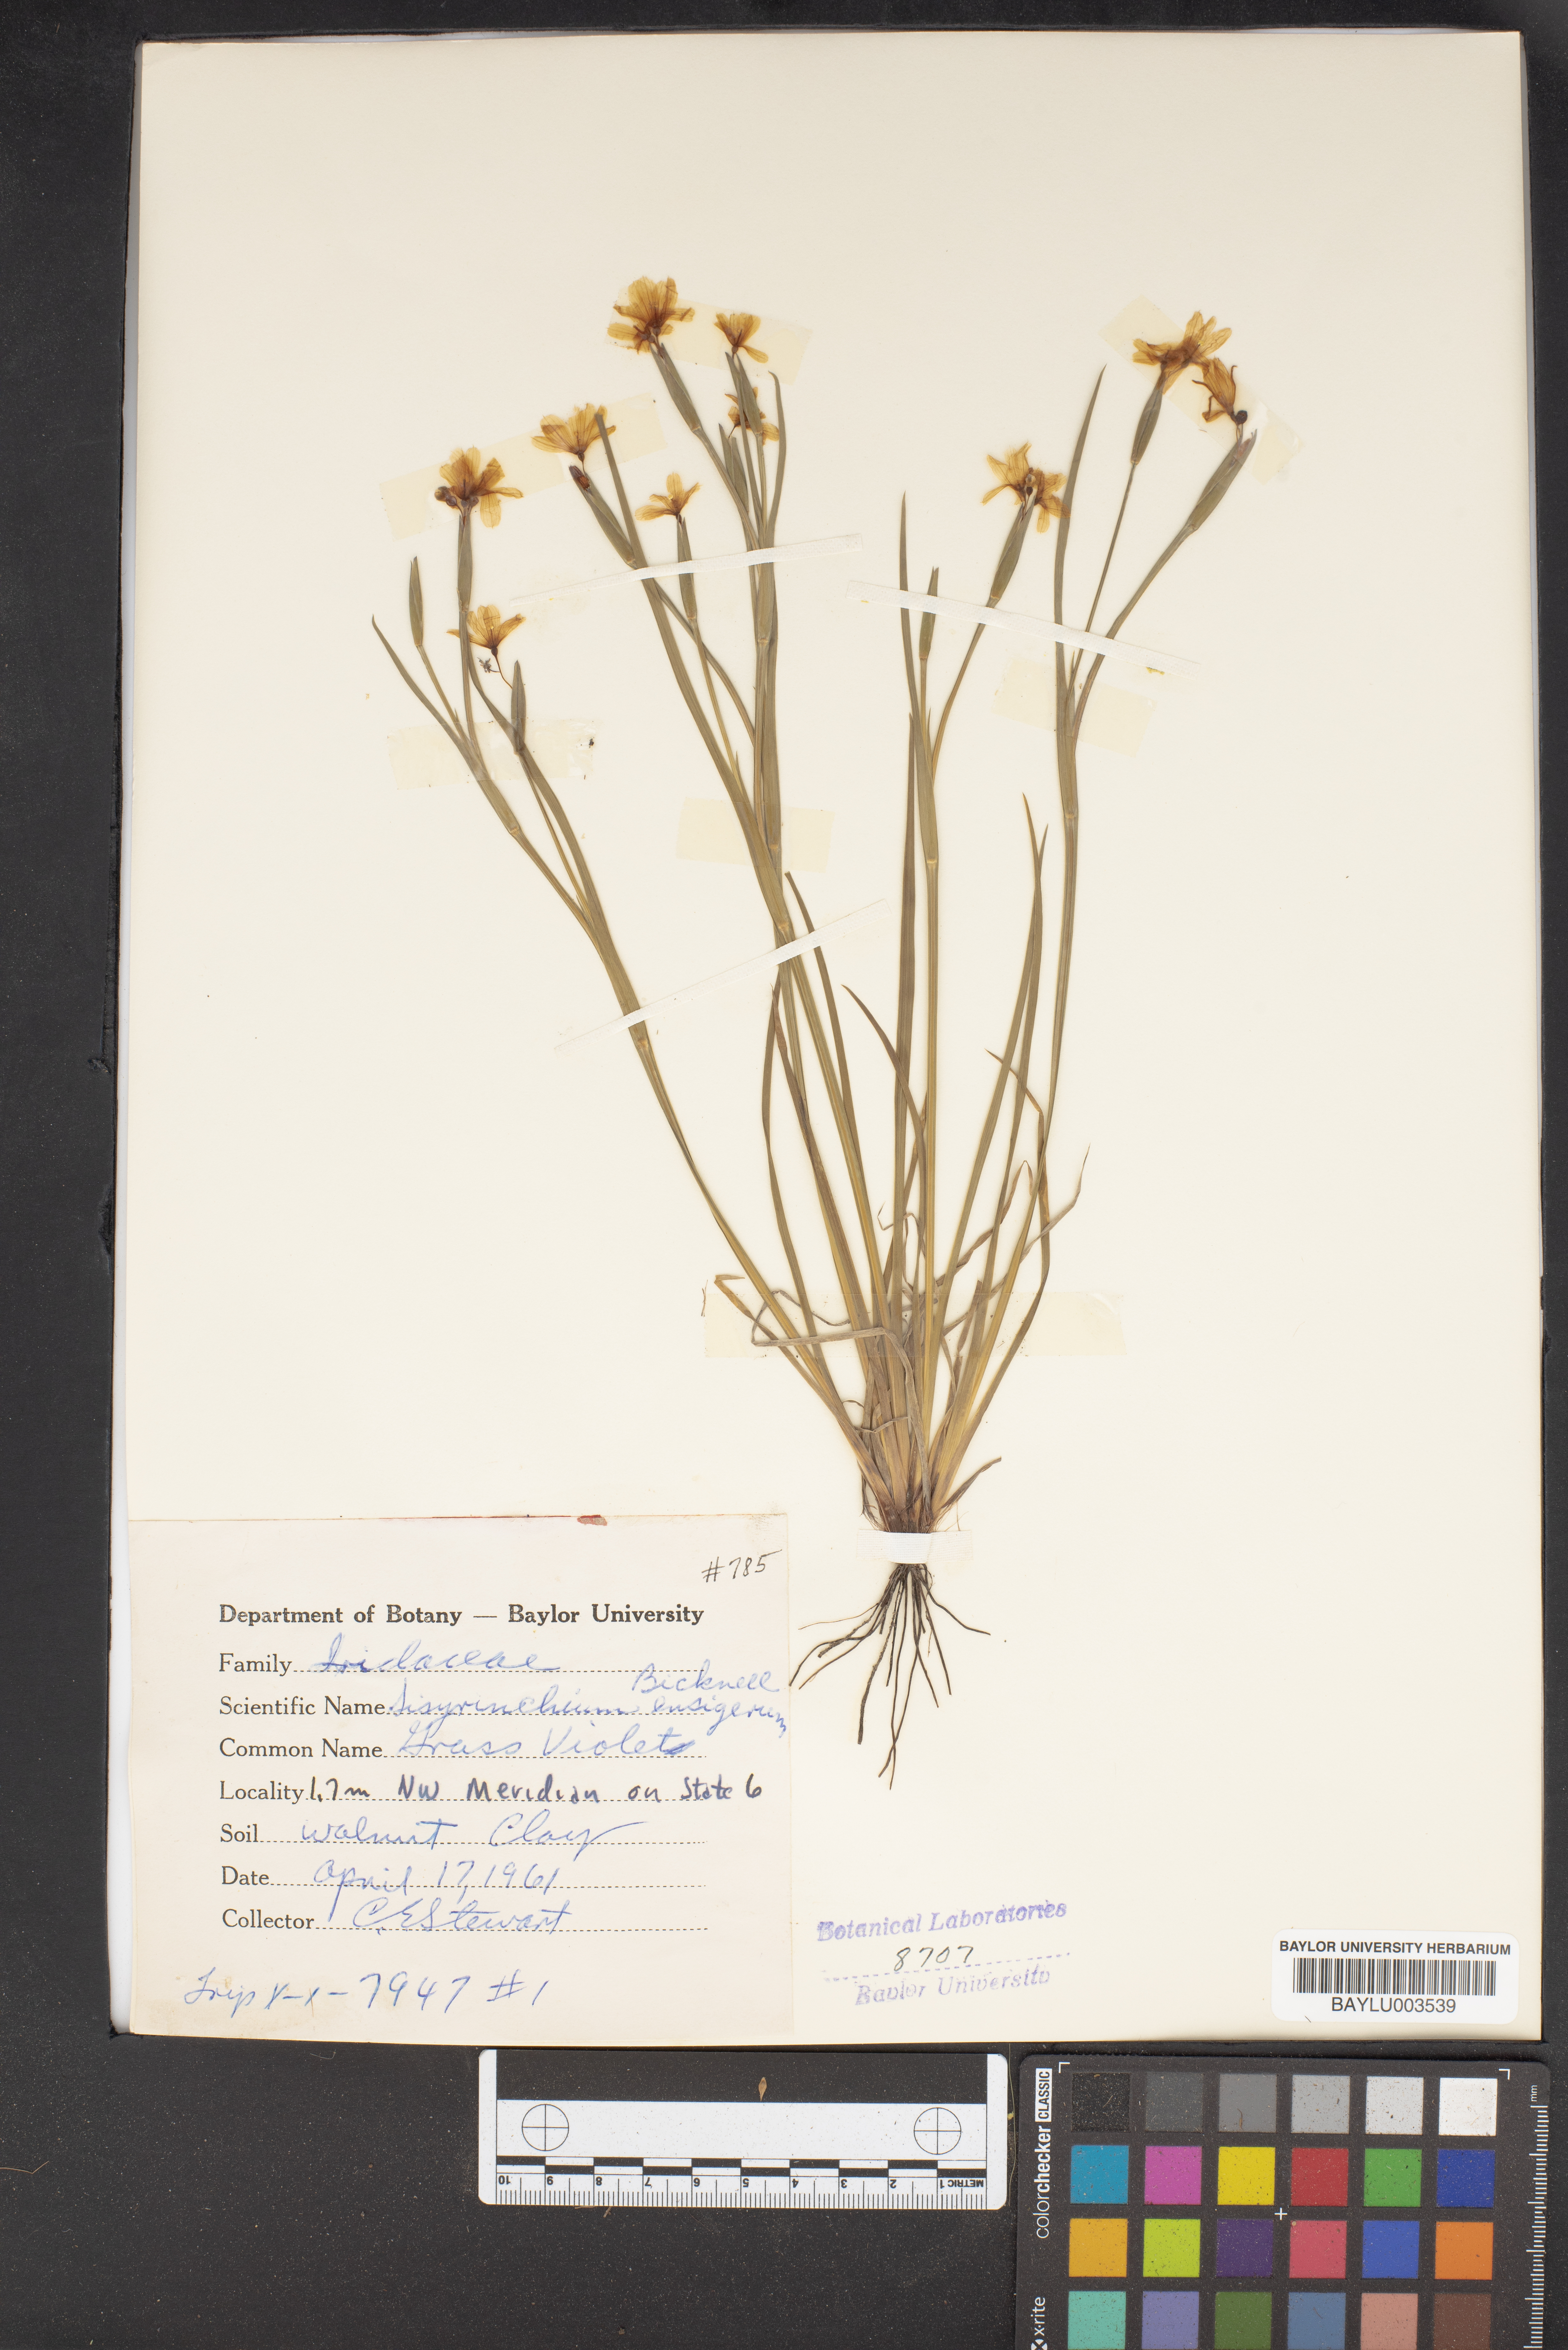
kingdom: Plantae
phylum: Tracheophyta
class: Liliopsida
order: Asparagales
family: Iridaceae
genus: Sisyrinchium
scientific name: Sisyrinchium ensigerum
